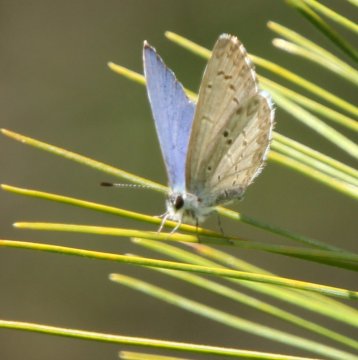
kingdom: Animalia
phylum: Arthropoda
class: Insecta
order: Lepidoptera
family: Lycaenidae
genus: Celastrina
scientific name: Celastrina lucia
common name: Northern Spring Azure
